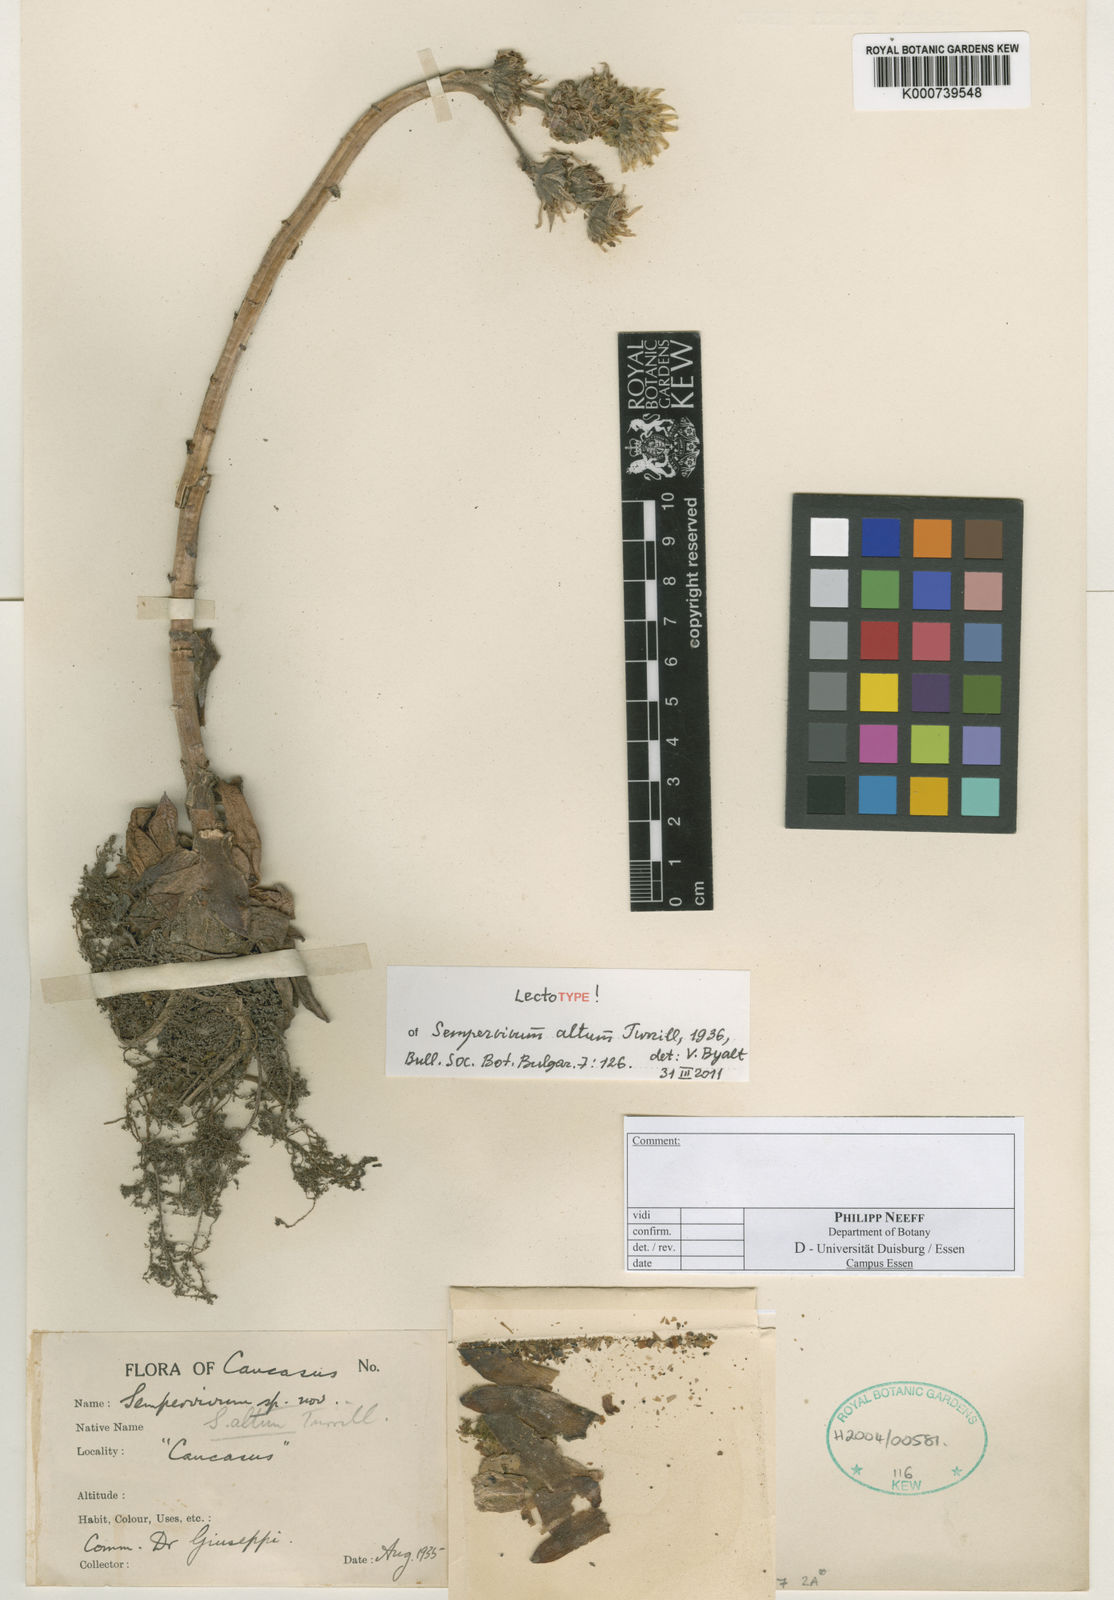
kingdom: Plantae
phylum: Tracheophyta
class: Magnoliopsida
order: Saxifragales
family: Crassulaceae
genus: Sempervivum
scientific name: Sempervivum altum
